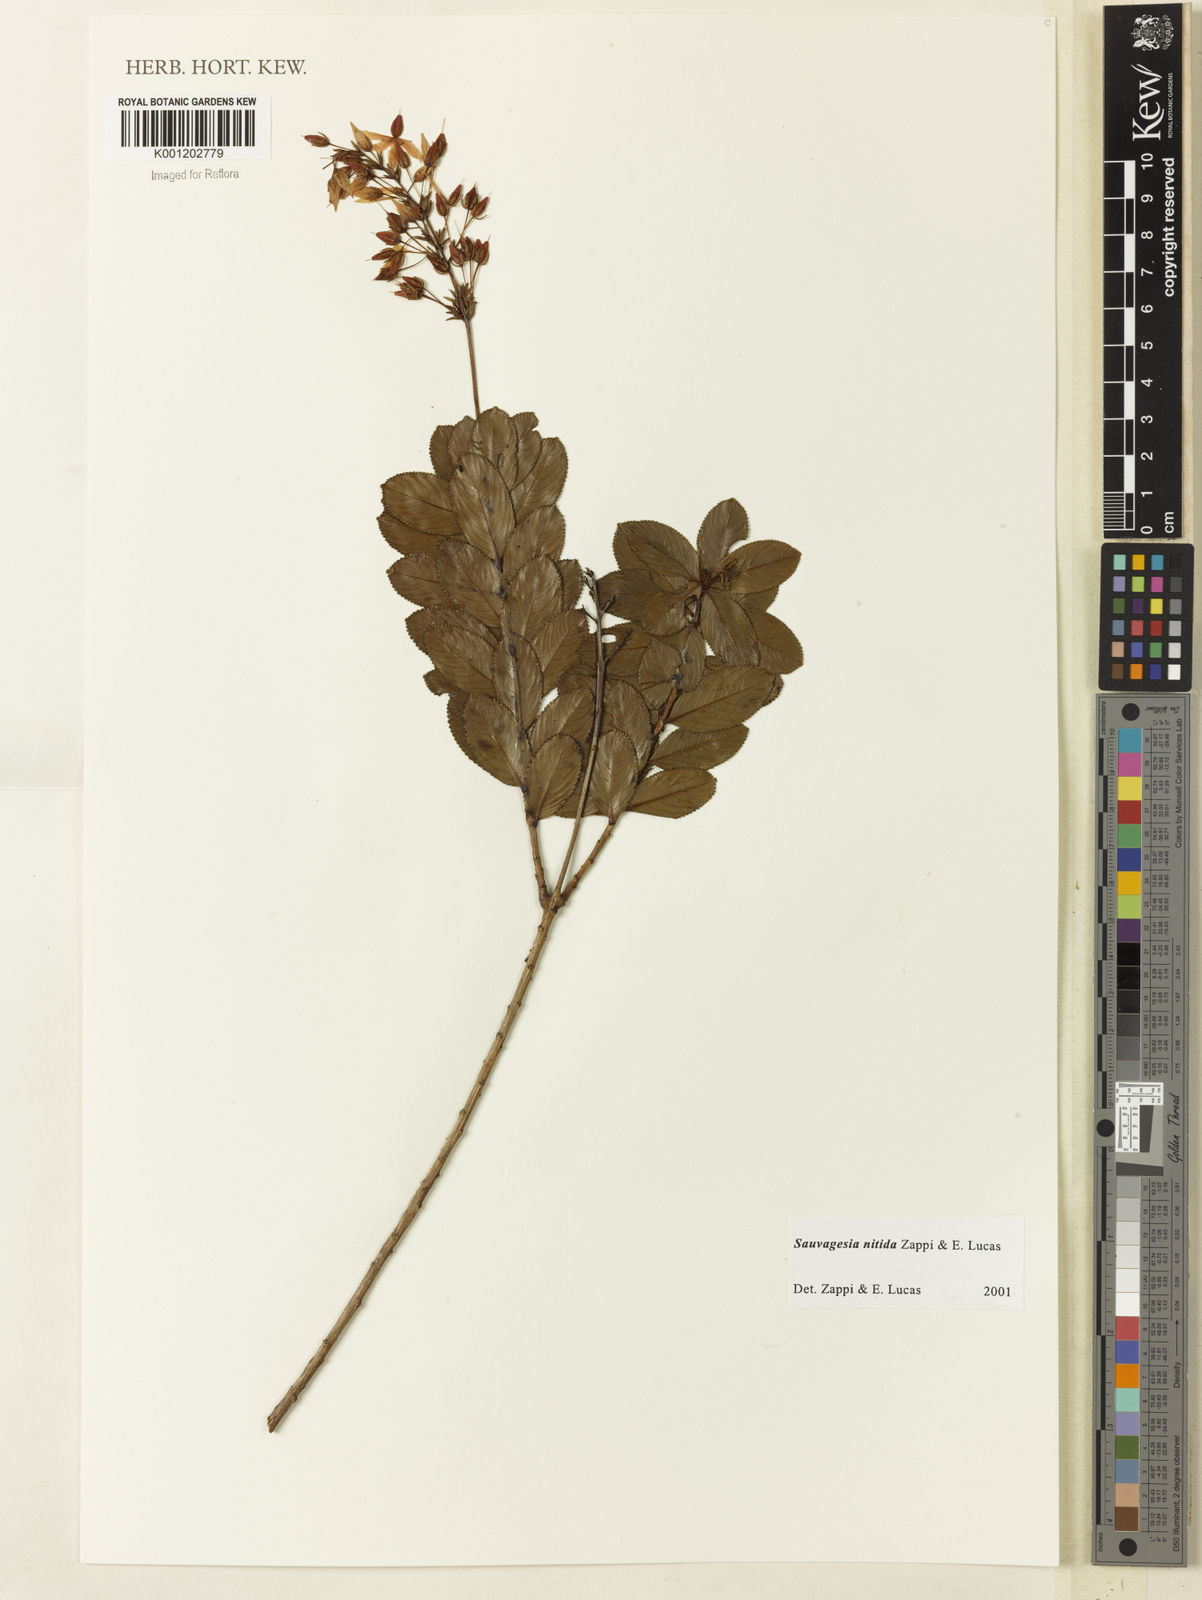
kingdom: Plantae
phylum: Tracheophyta
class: Magnoliopsida
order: Malpighiales
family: Ochnaceae
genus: Sauvagesia
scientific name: Sauvagesia nitida
